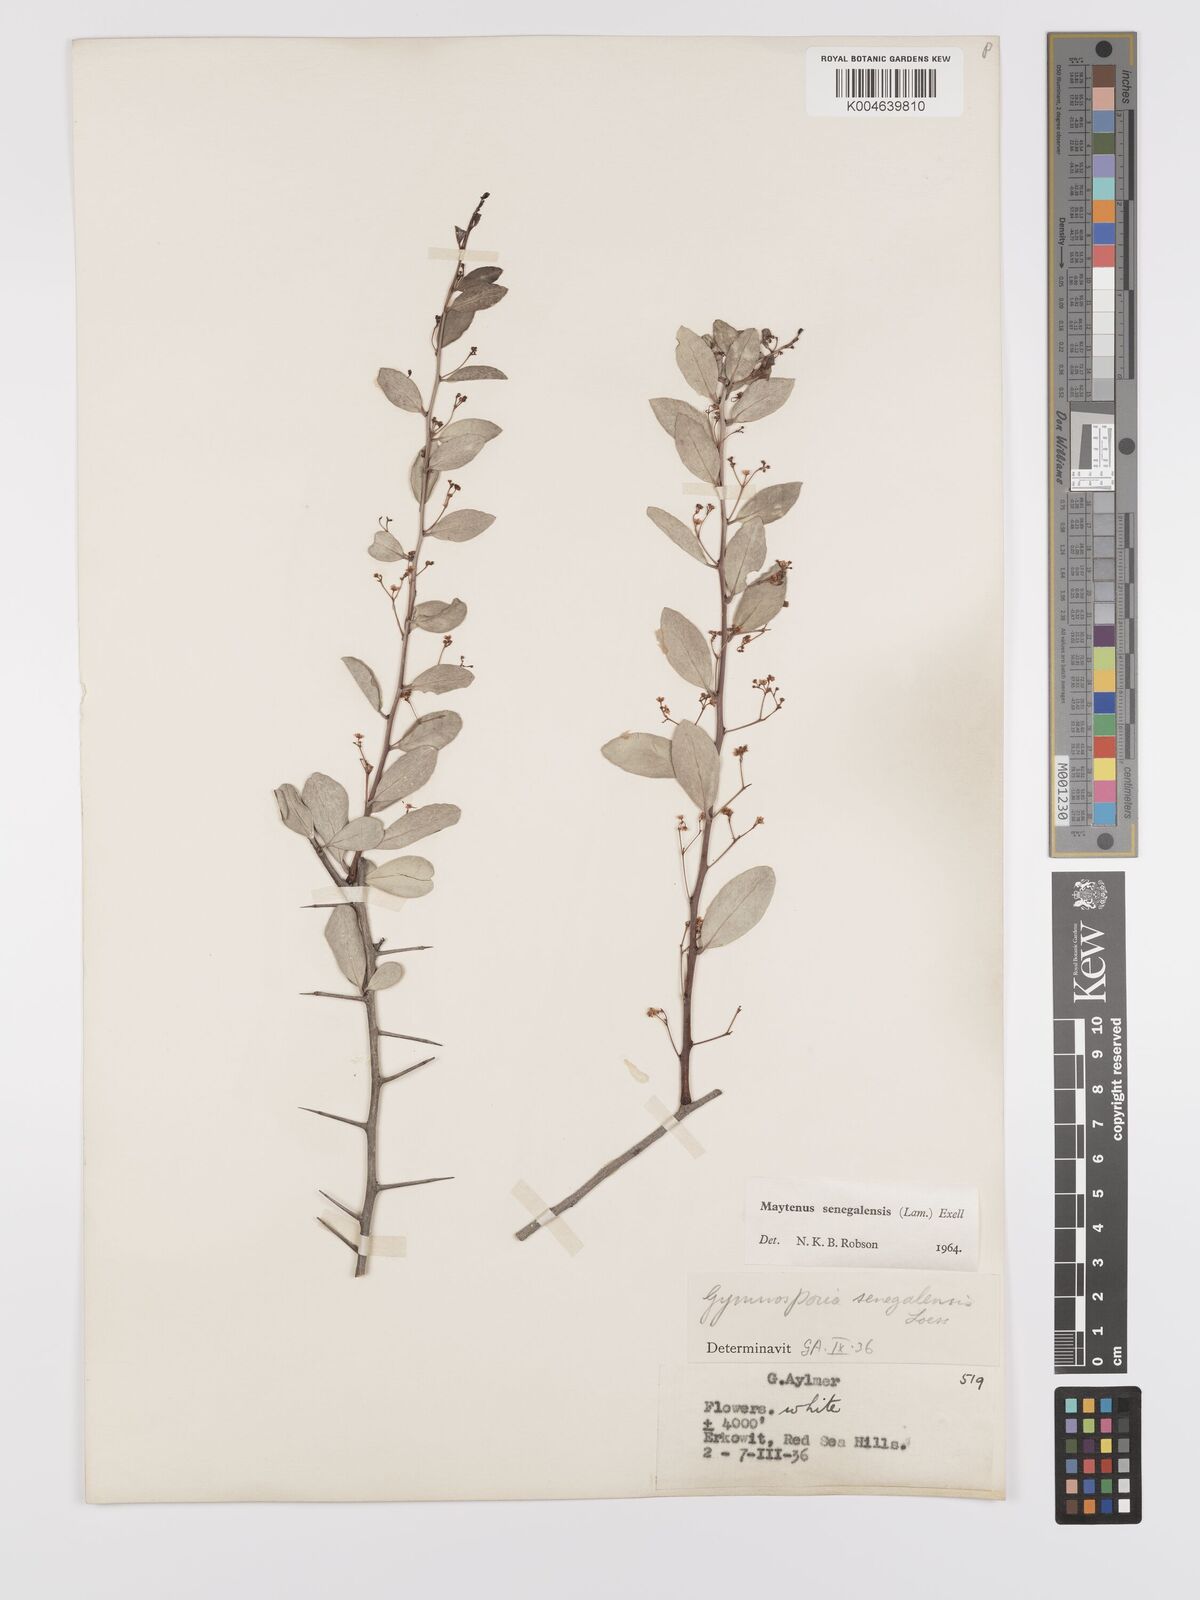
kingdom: Plantae
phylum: Tracheophyta
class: Magnoliopsida
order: Celastrales
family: Celastraceae
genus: Gymnosporia
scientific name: Gymnosporia senegalensis
